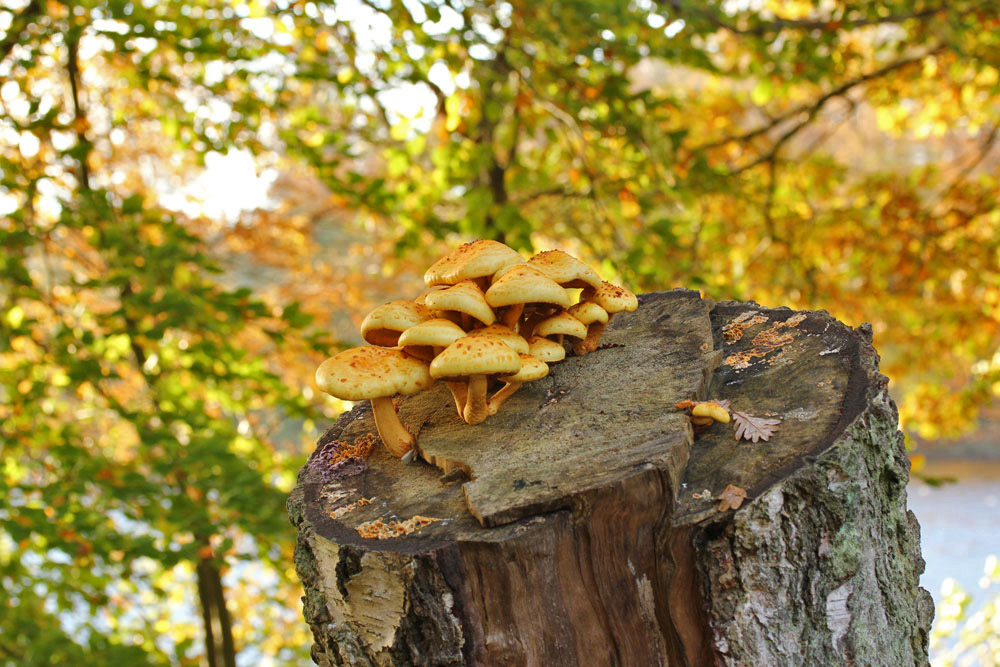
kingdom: Fungi
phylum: Basidiomycota
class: Agaricomycetes
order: Agaricales
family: Strophariaceae
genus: Pholiota
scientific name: Pholiota limonella
